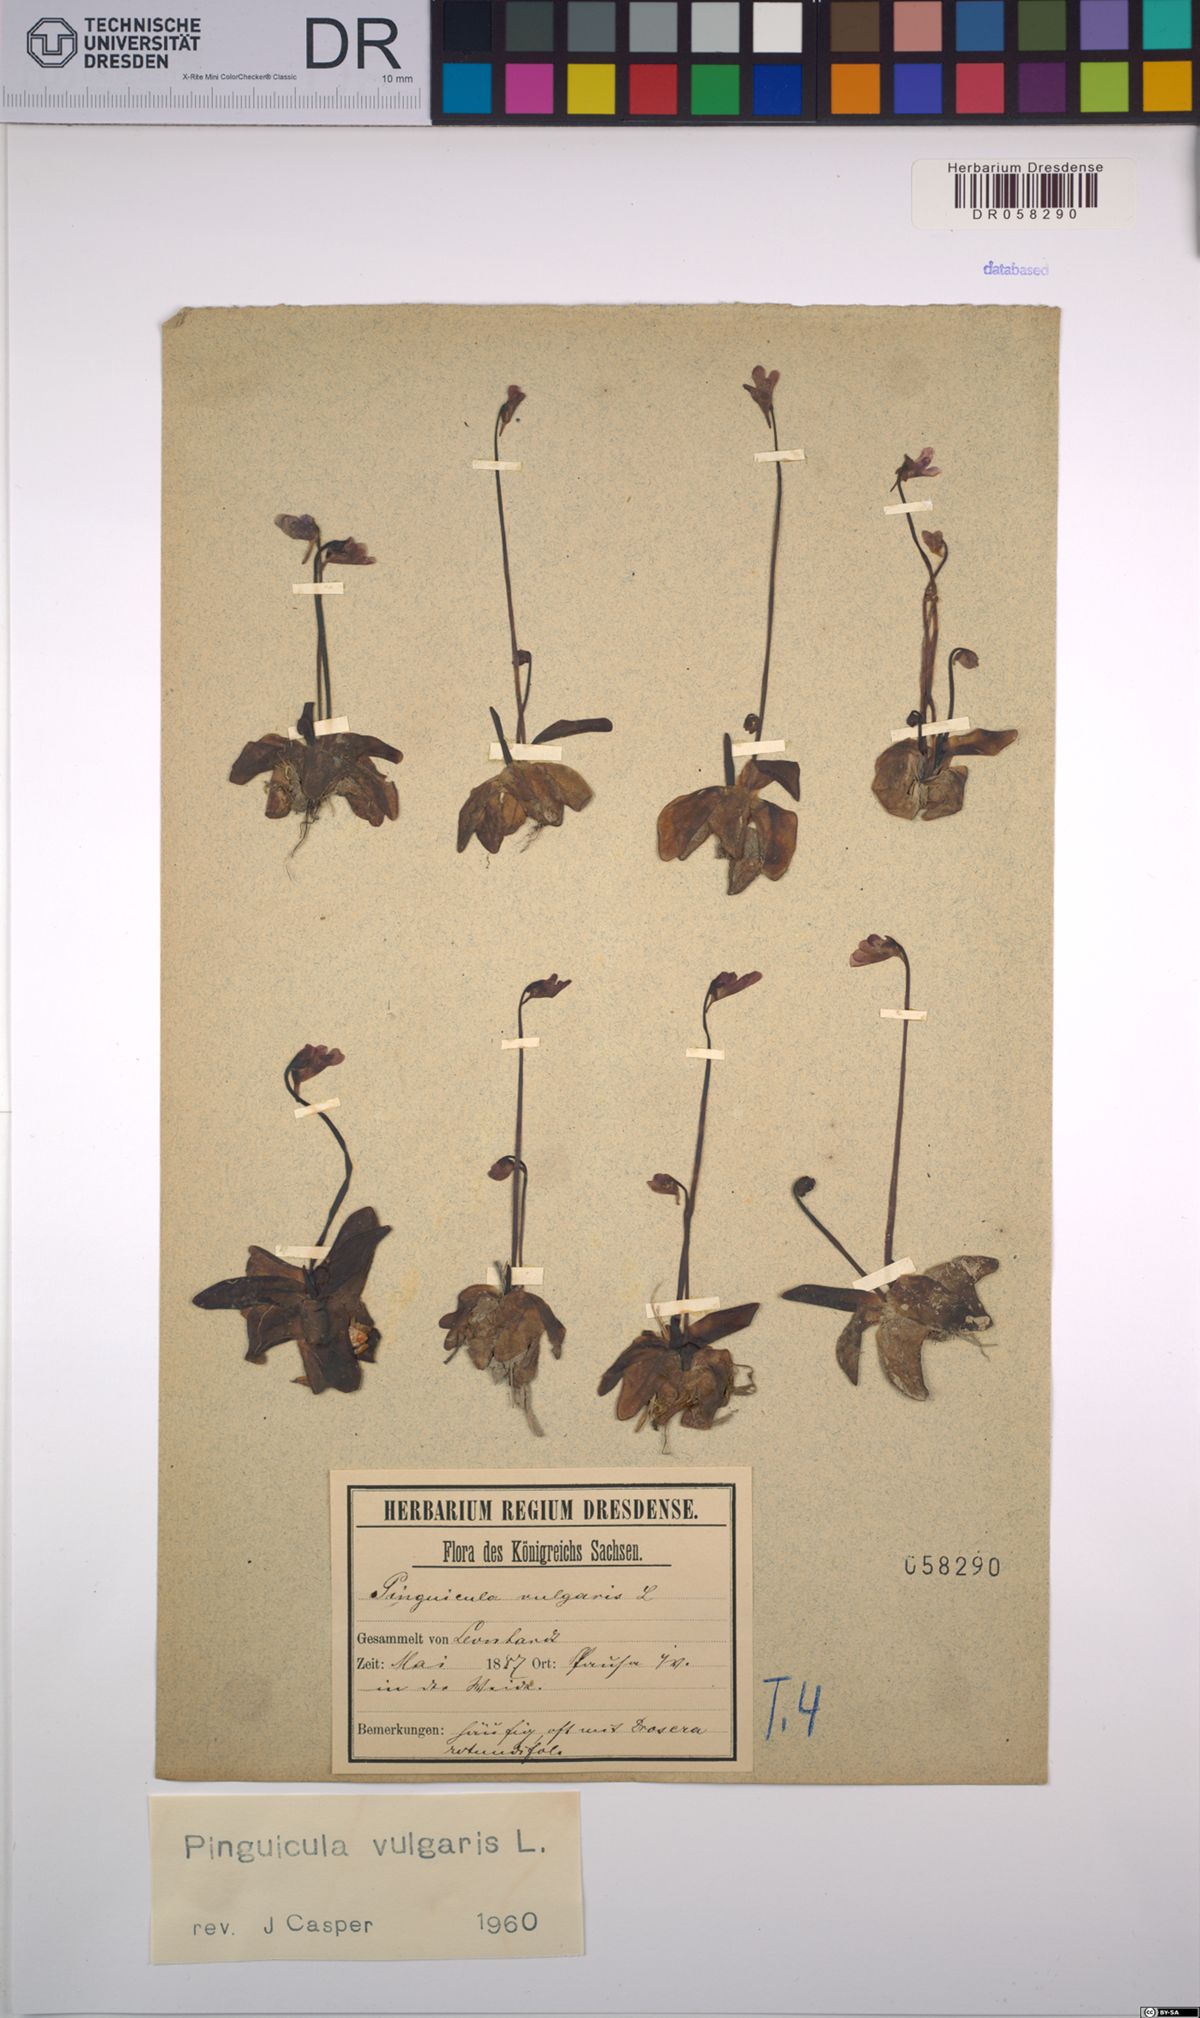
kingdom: Plantae
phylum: Tracheophyta
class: Magnoliopsida
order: Lamiales
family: Lentibulariaceae
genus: Pinguicula
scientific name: Pinguicula vulgaris
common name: Common butterwort
